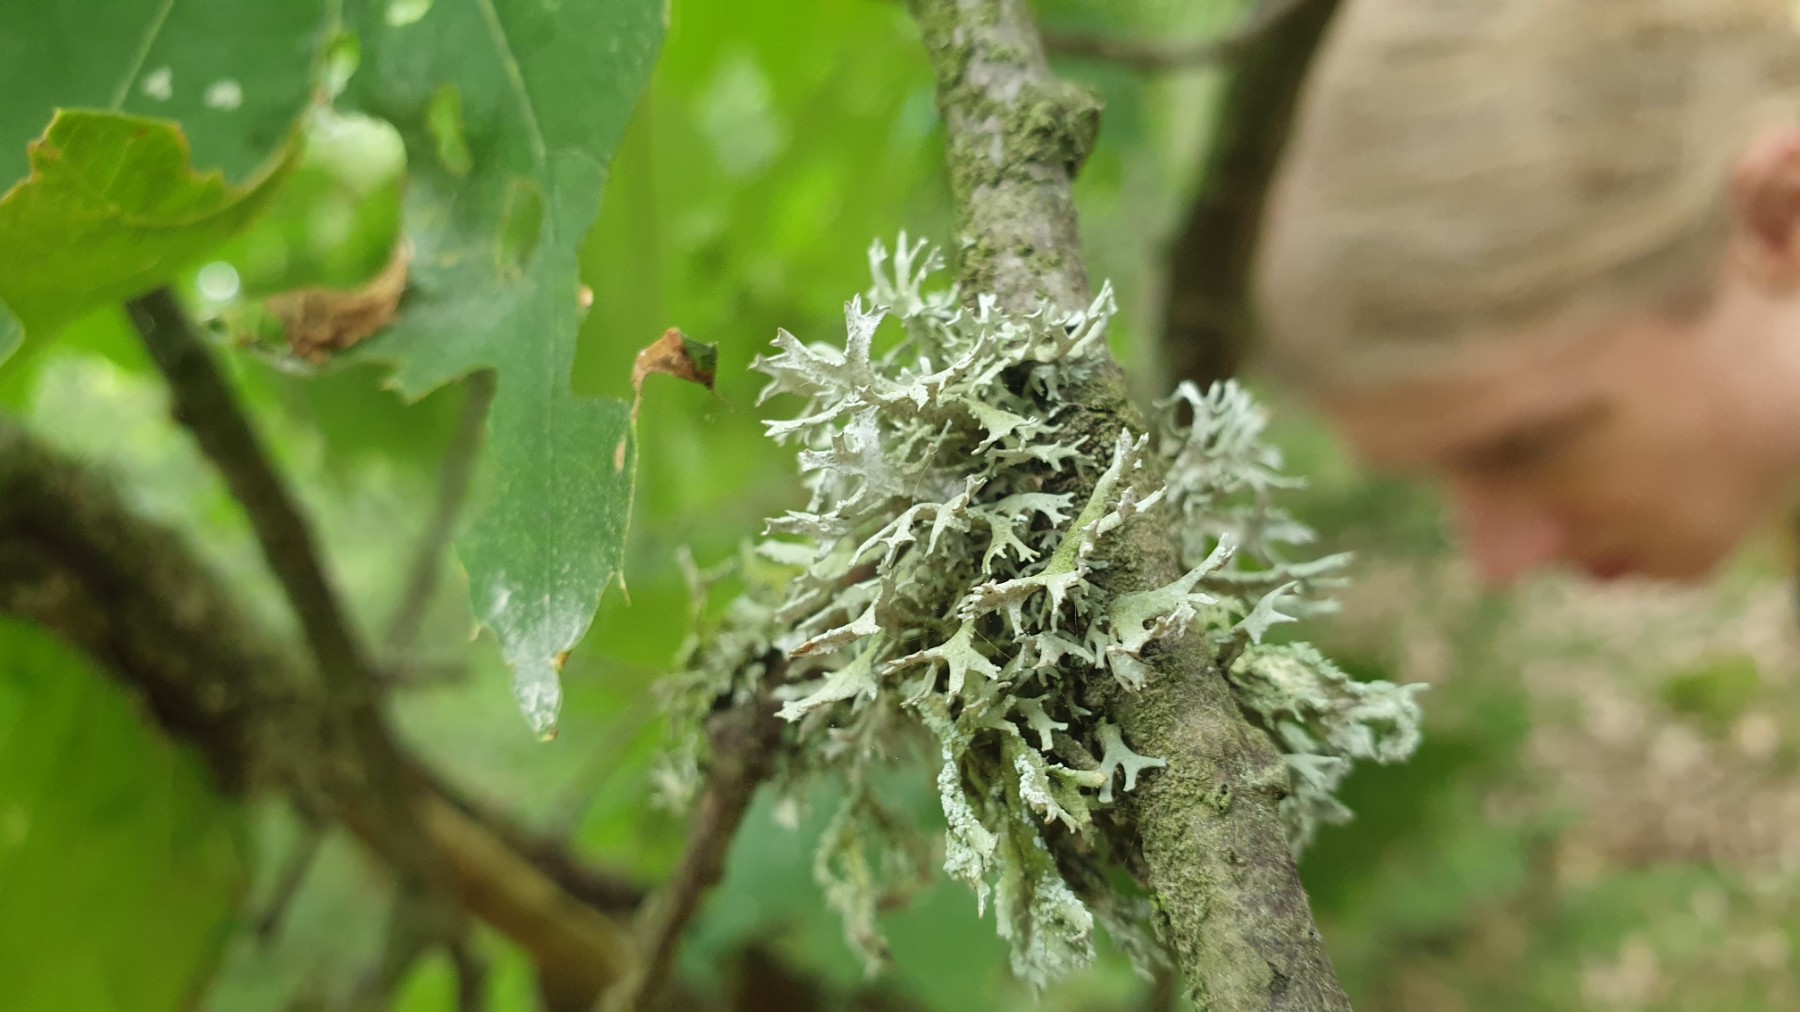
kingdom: Fungi
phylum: Ascomycota
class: Lecanoromycetes
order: Lecanorales
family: Parmeliaceae
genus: Evernia
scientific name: Evernia prunastri
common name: almindelig slåenlav
